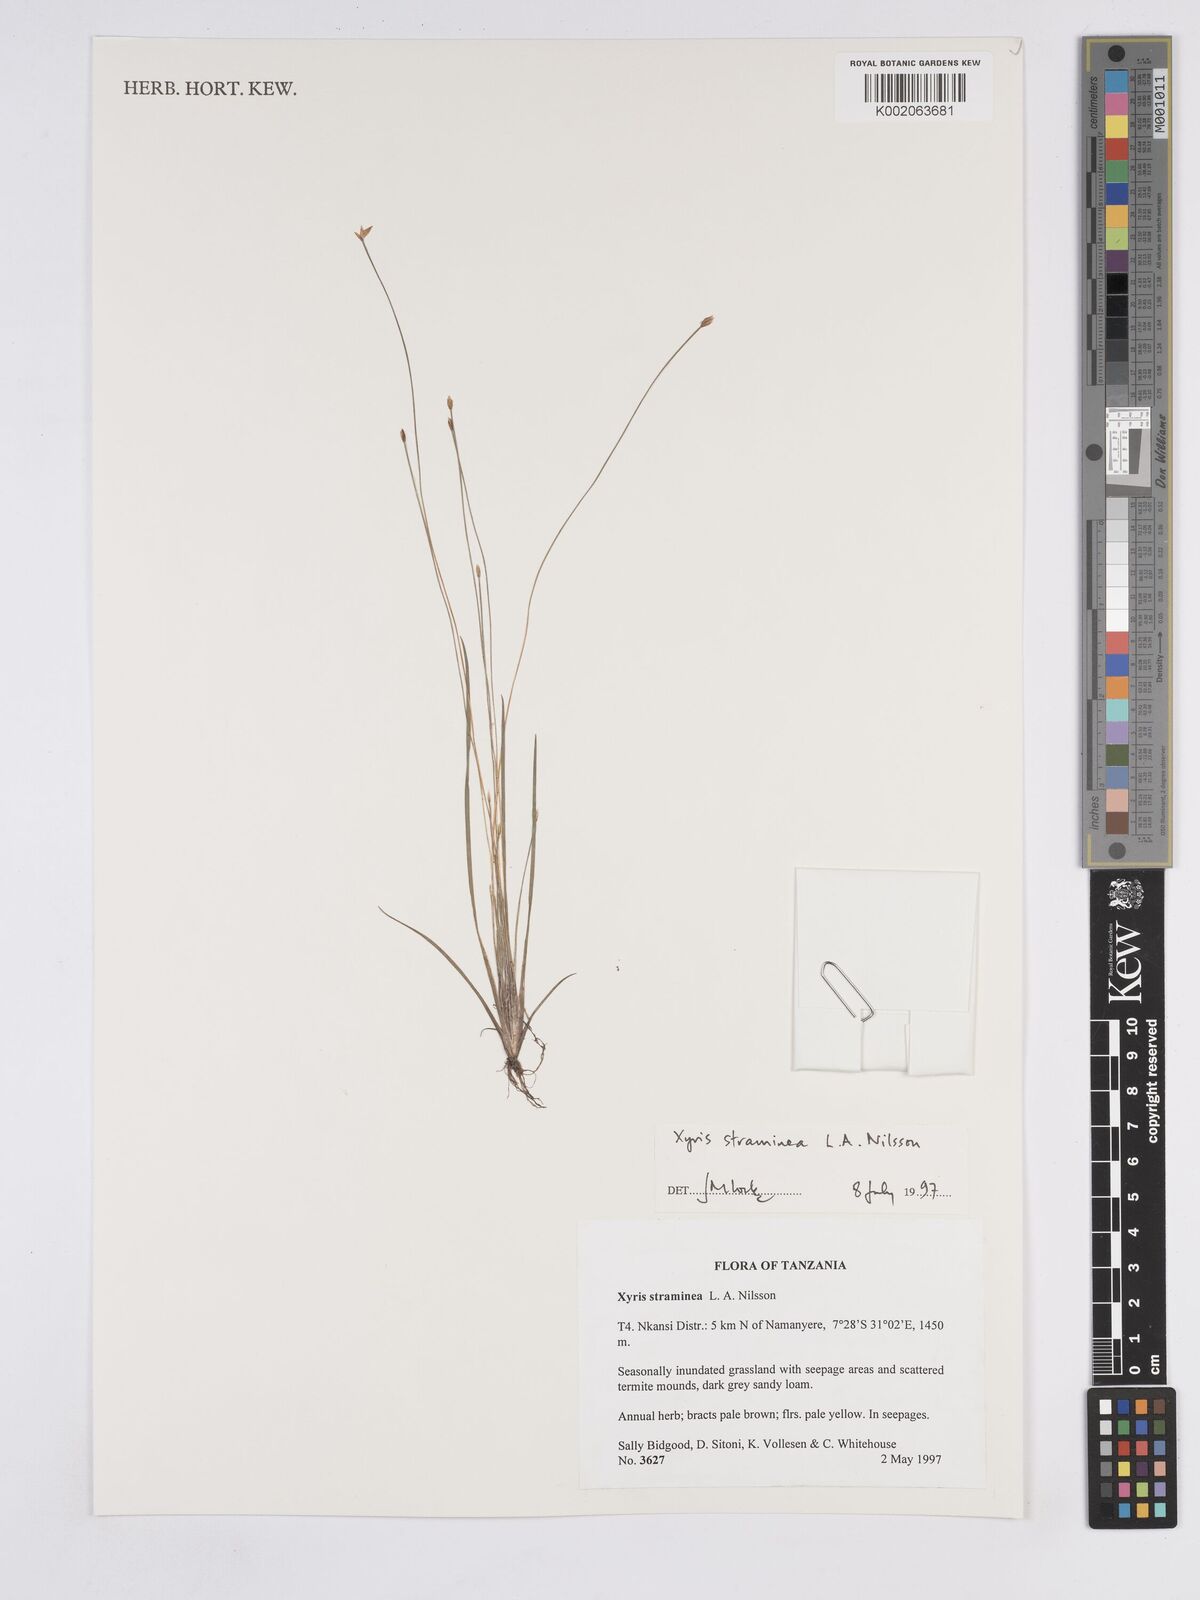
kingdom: Plantae
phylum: Tracheophyta
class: Liliopsida
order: Poales
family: Xyridaceae
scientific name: Xyridaceae
